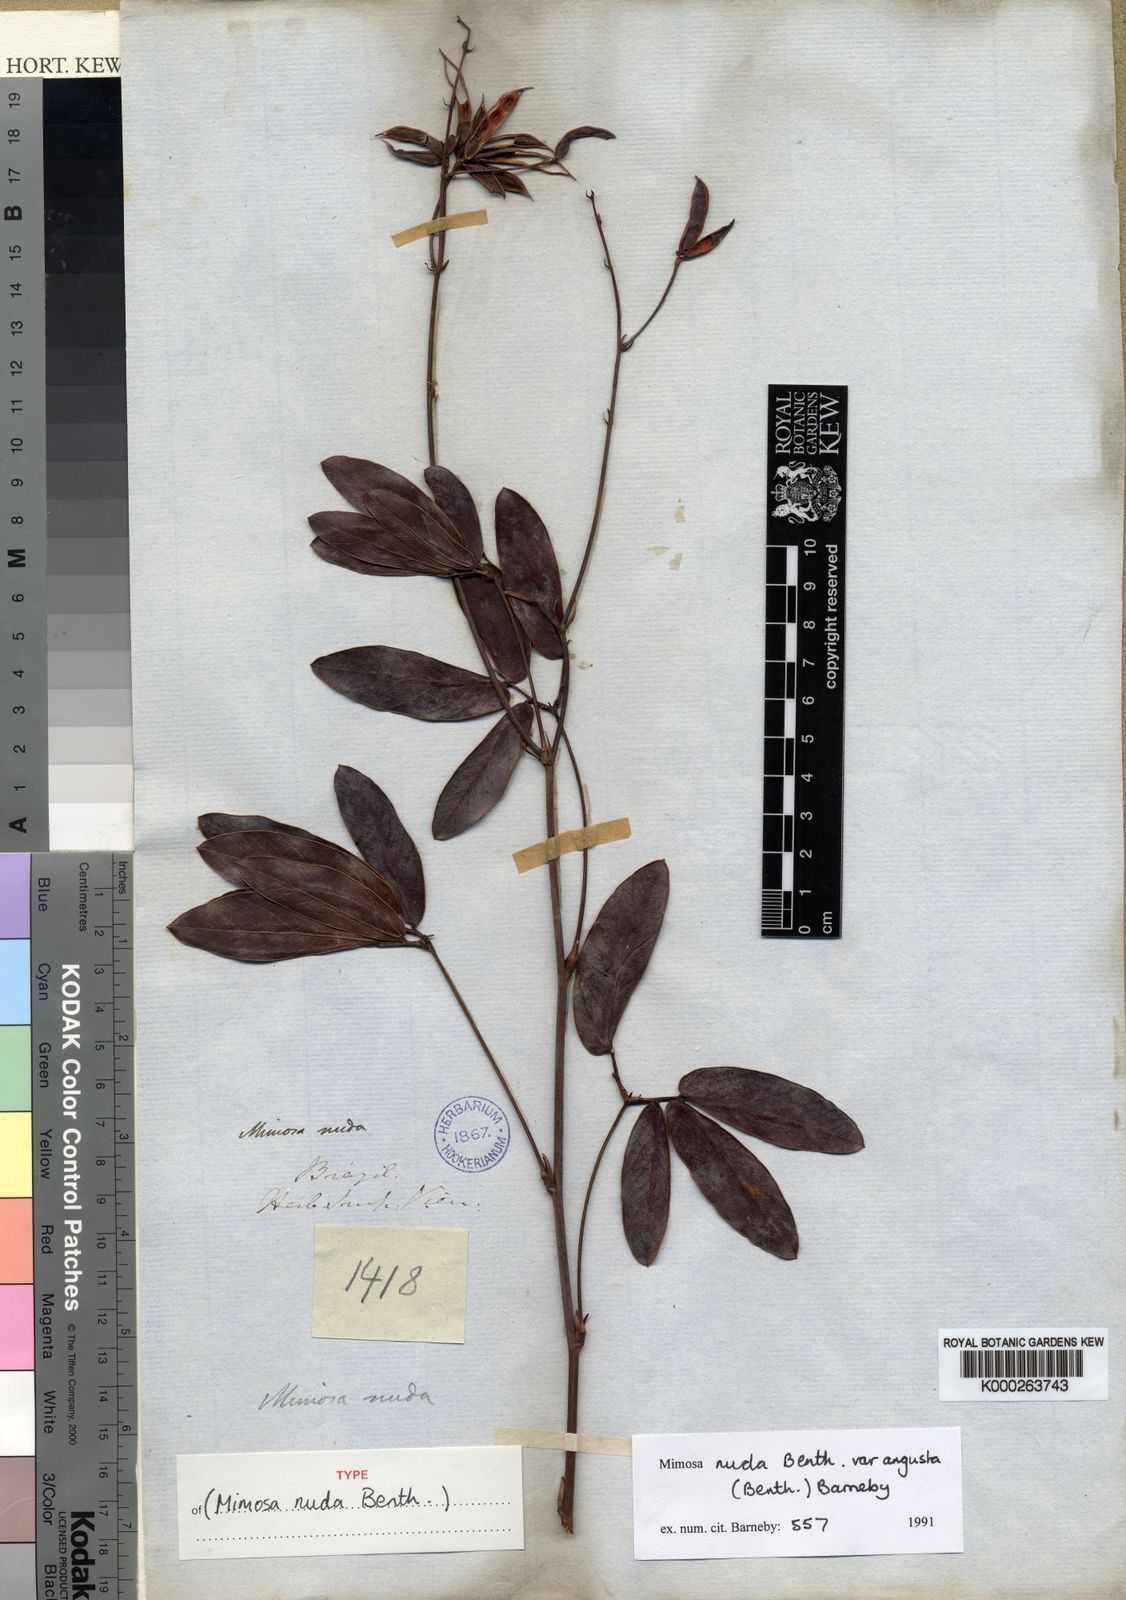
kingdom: Plantae
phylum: Tracheophyta
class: Magnoliopsida
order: Fabales
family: Fabaceae
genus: Mimosa
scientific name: Mimosa debilis
